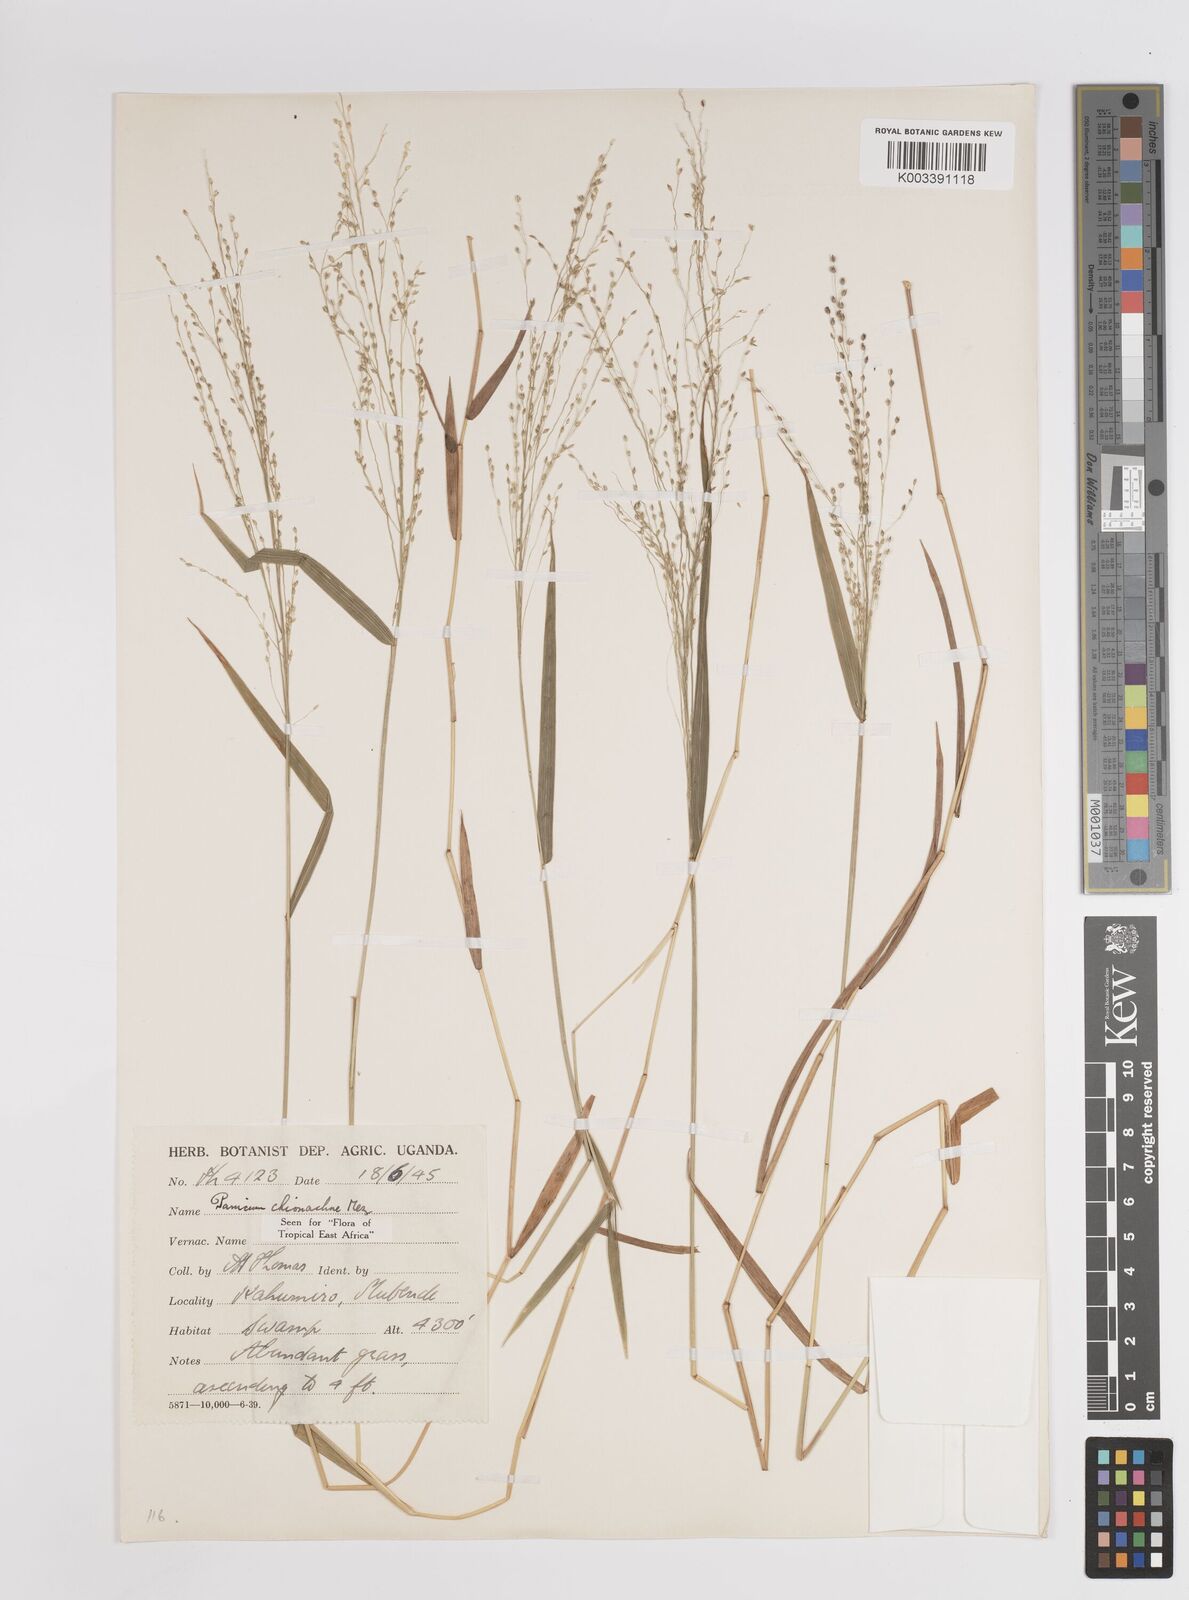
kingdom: Plantae
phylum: Tracheophyta
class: Liliopsida
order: Poales
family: Poaceae
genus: Panicum
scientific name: Panicum chionachne
